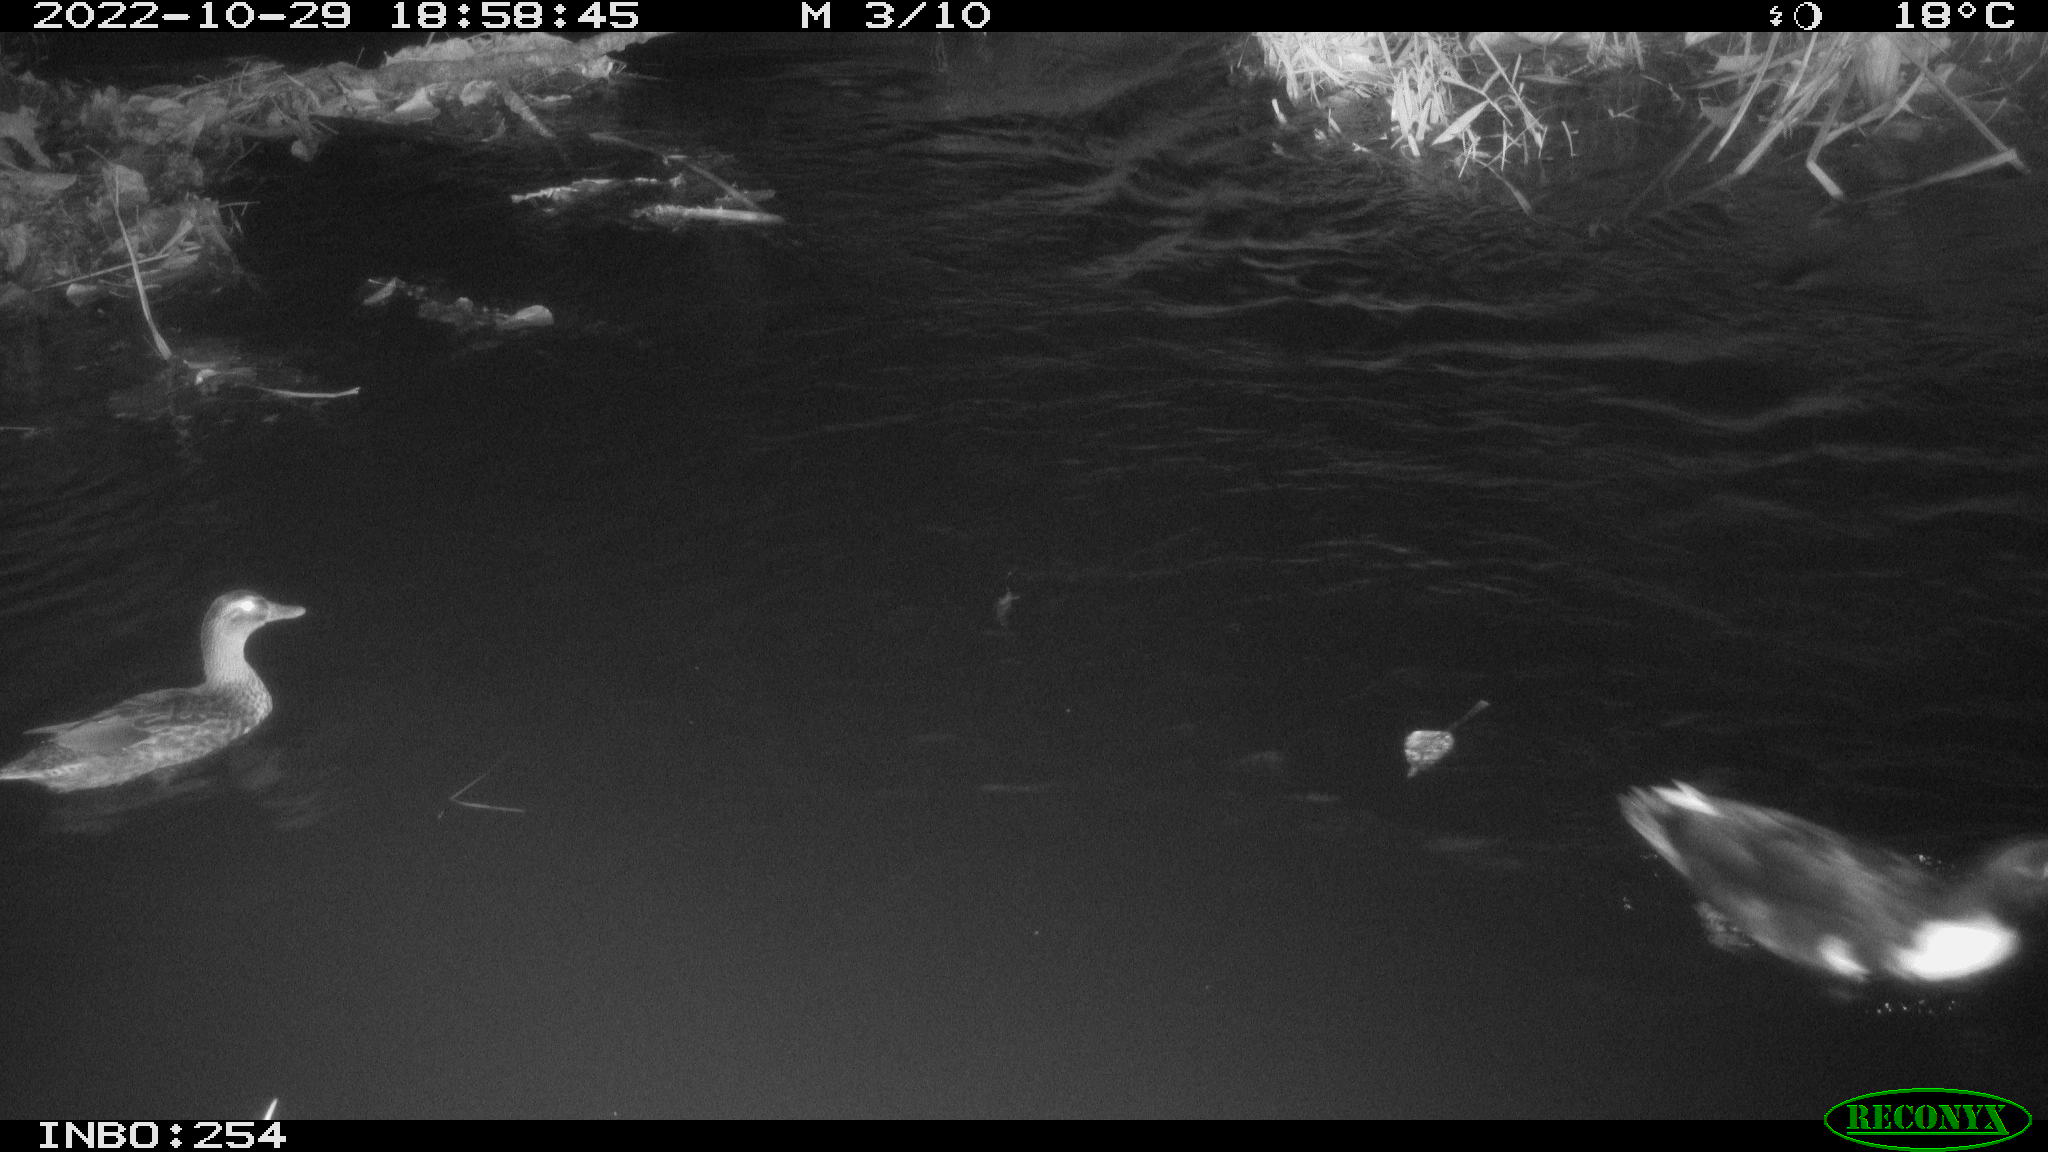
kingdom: Animalia
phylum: Chordata
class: Aves
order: Anseriformes
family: Anatidae
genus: Anas
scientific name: Anas
